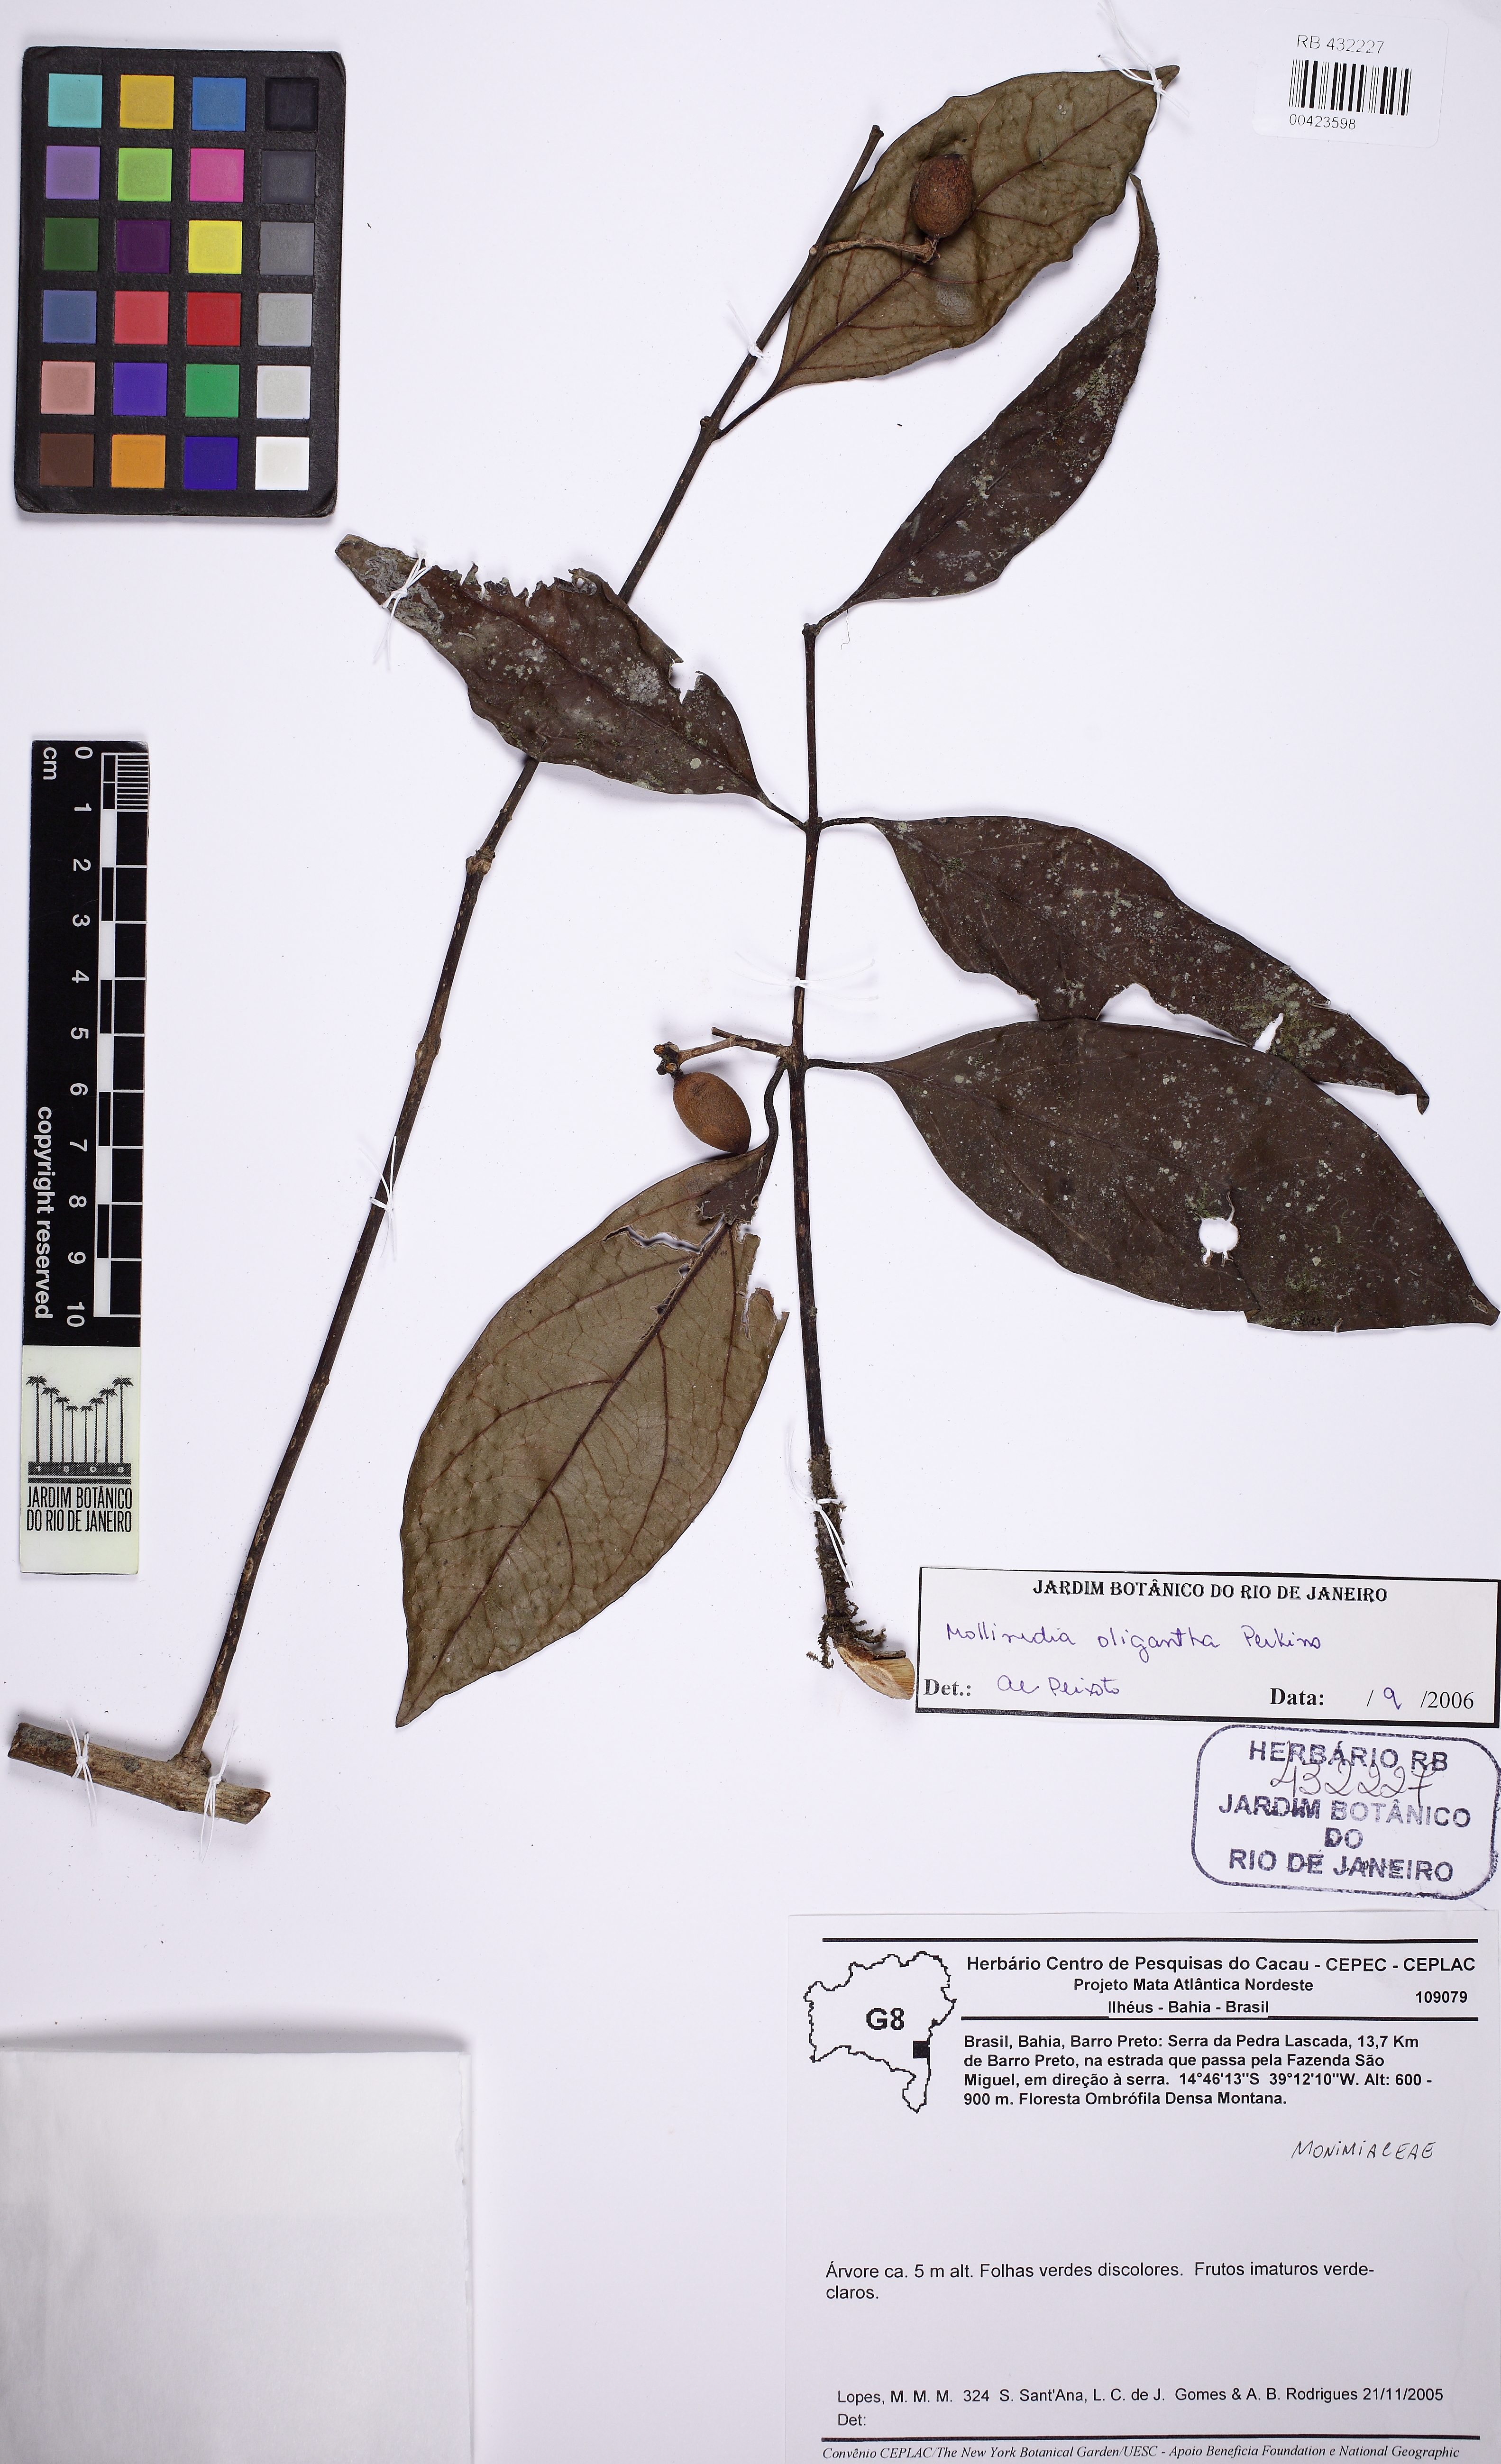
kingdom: Plantae
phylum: Tracheophyta
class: Magnoliopsida
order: Laurales
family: Monimiaceae
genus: Mollinedia
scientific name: Mollinedia oligantha
